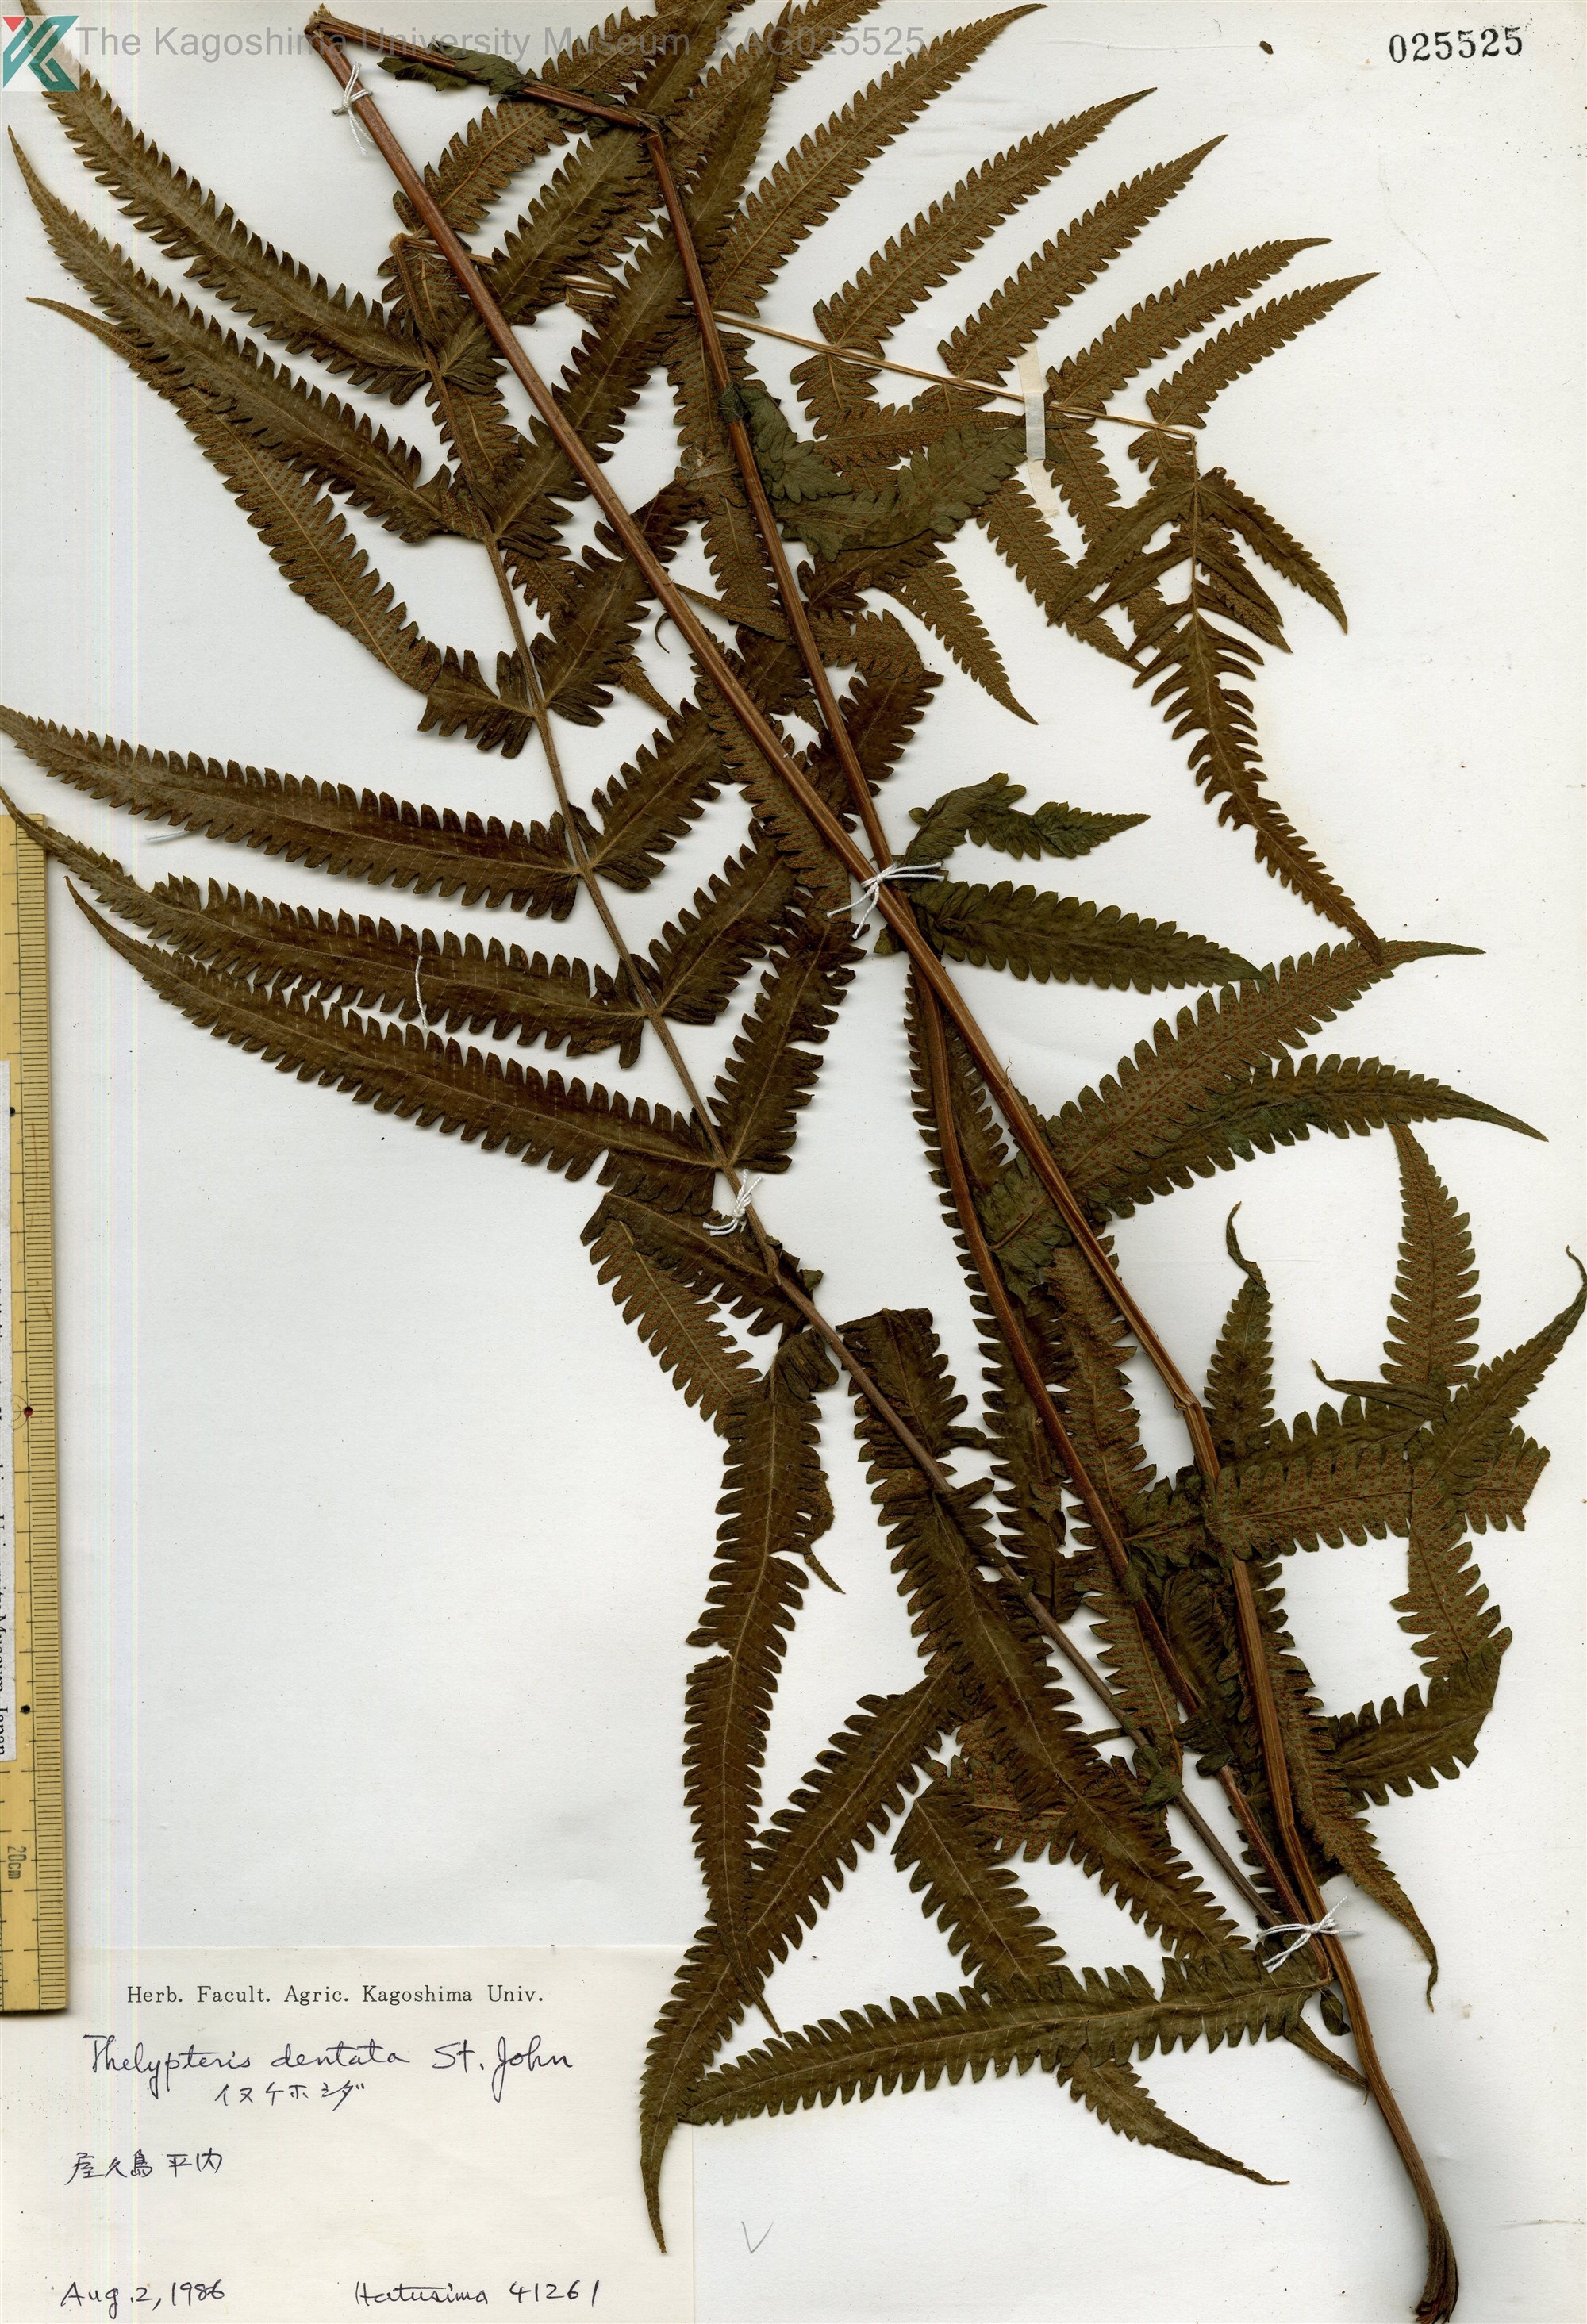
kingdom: Plantae
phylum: Tracheophyta
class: Polypodiopsida
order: Polypodiales
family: Thelypteridaceae
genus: Christella
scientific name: Christella dentata
